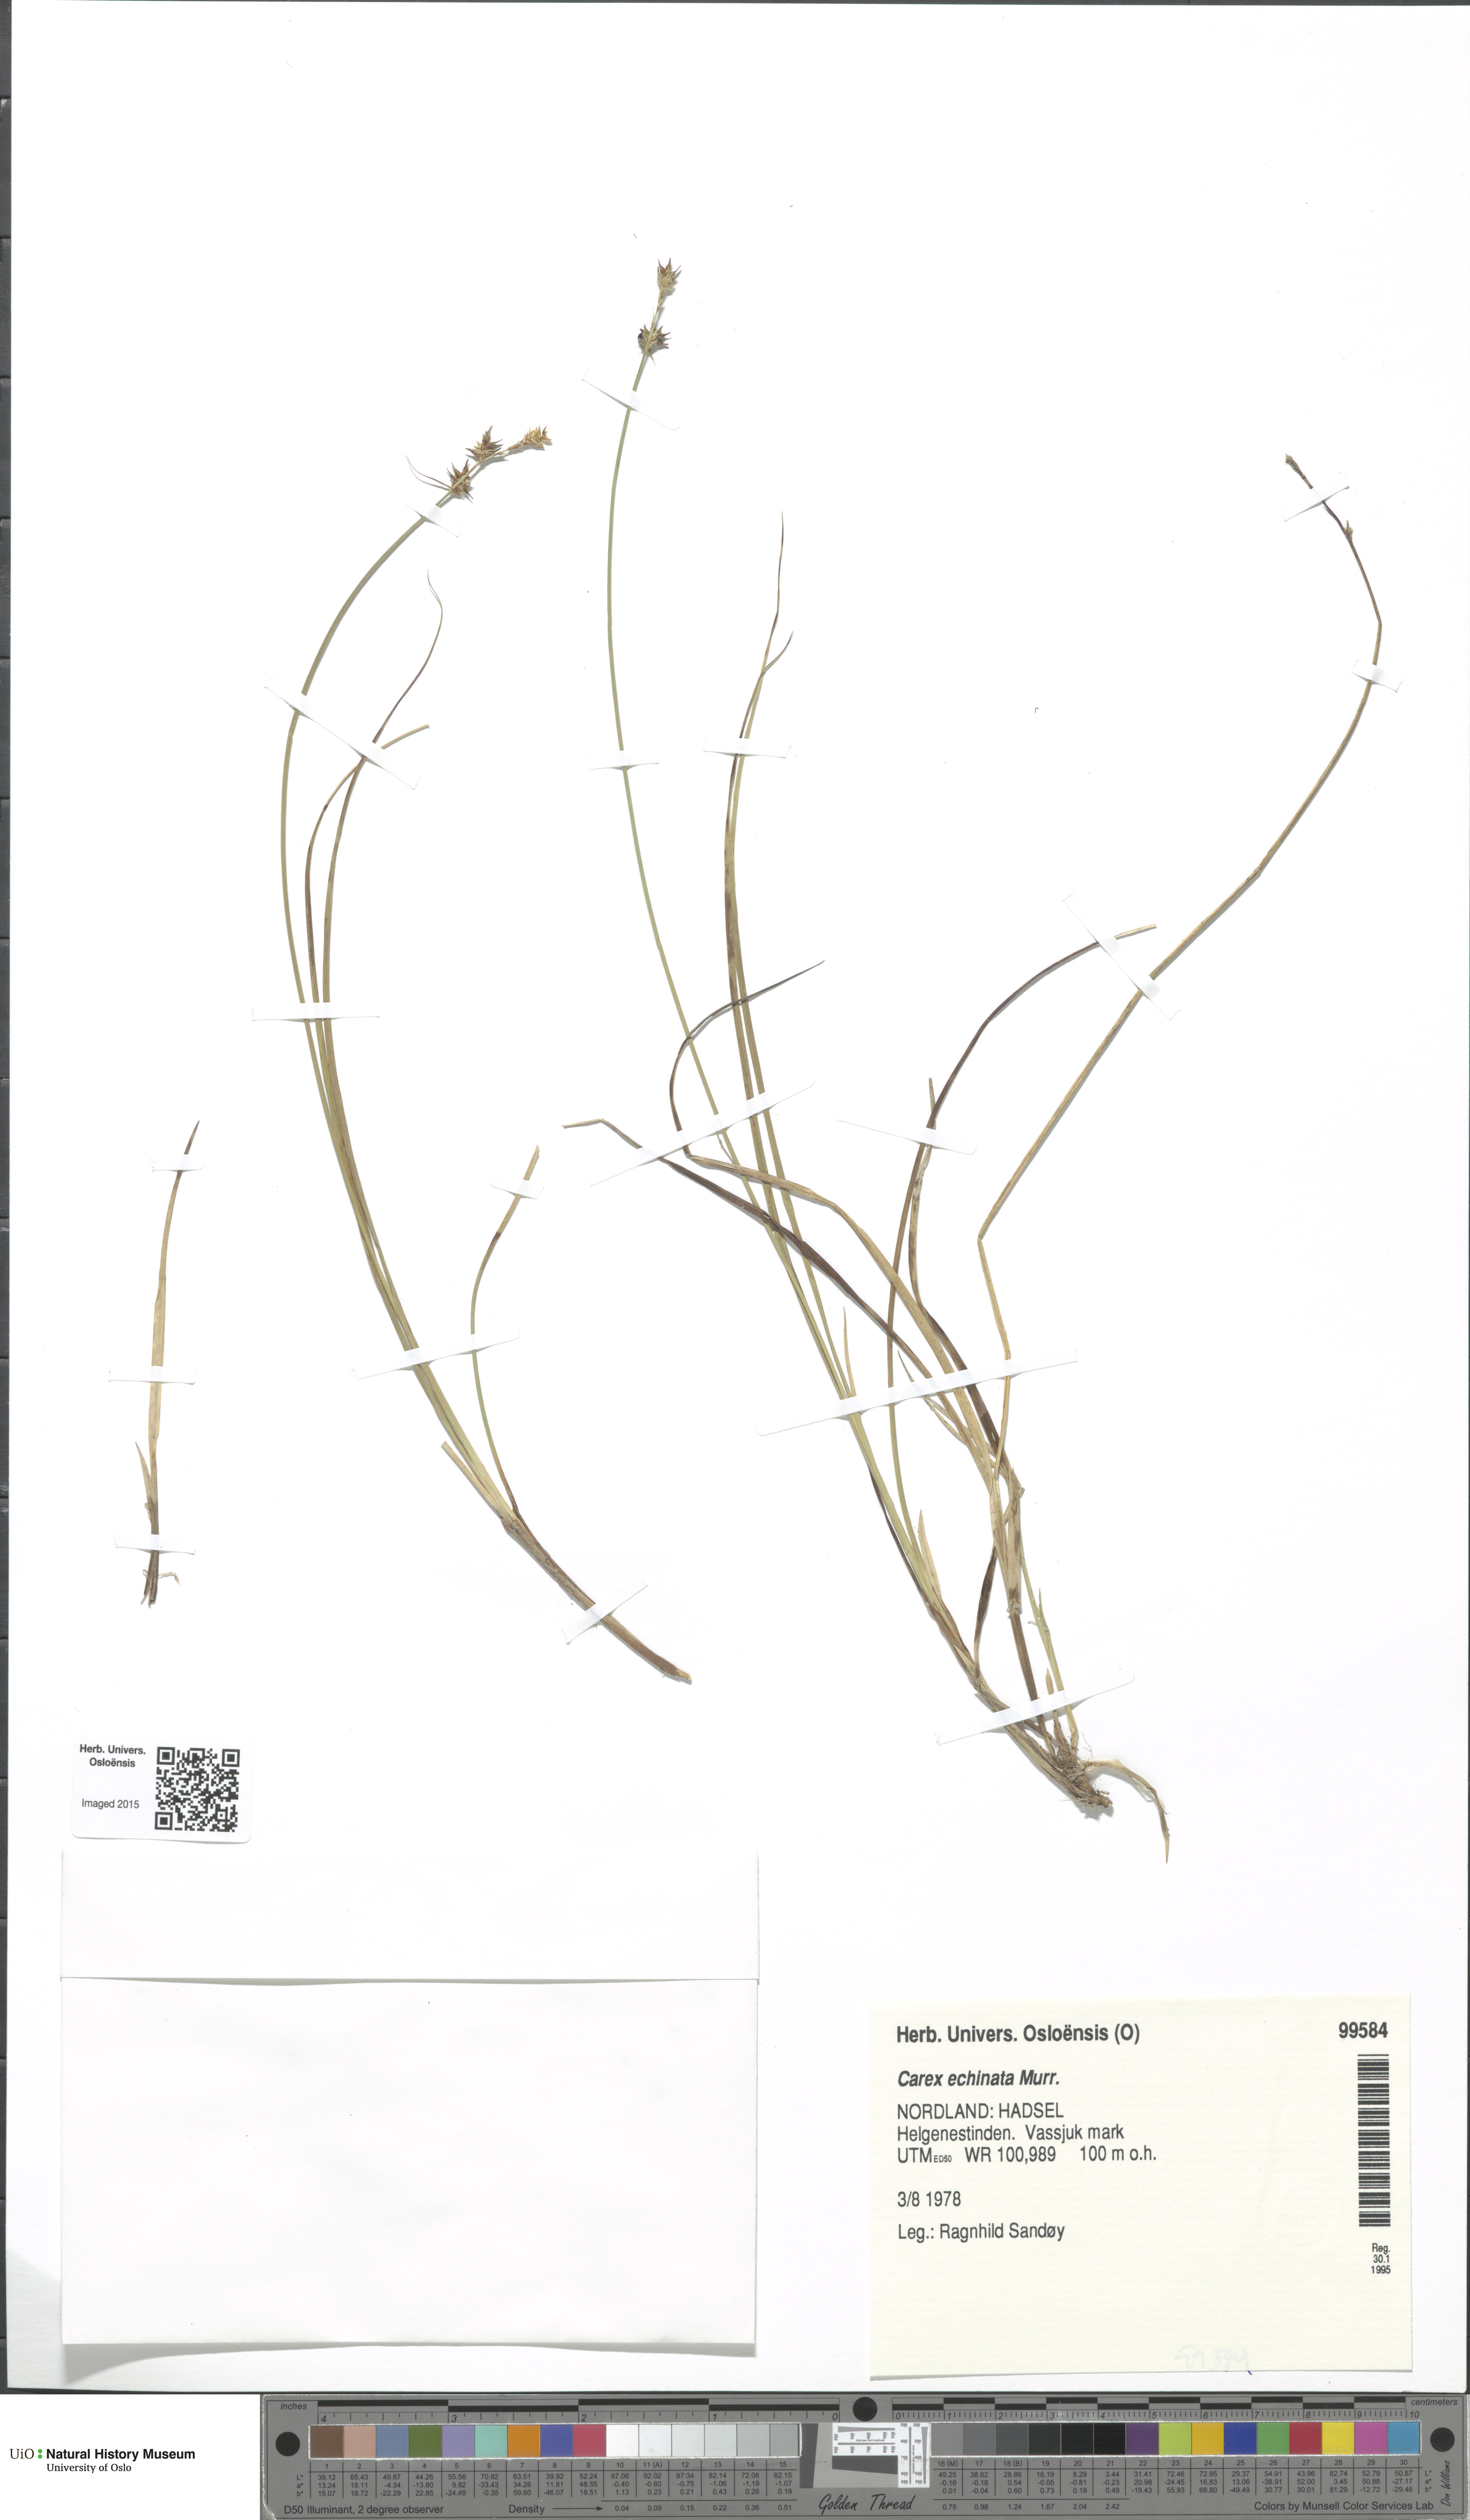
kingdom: Plantae
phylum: Tracheophyta
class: Liliopsida
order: Poales
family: Cyperaceae
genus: Carex
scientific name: Carex echinata
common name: Star sedge
